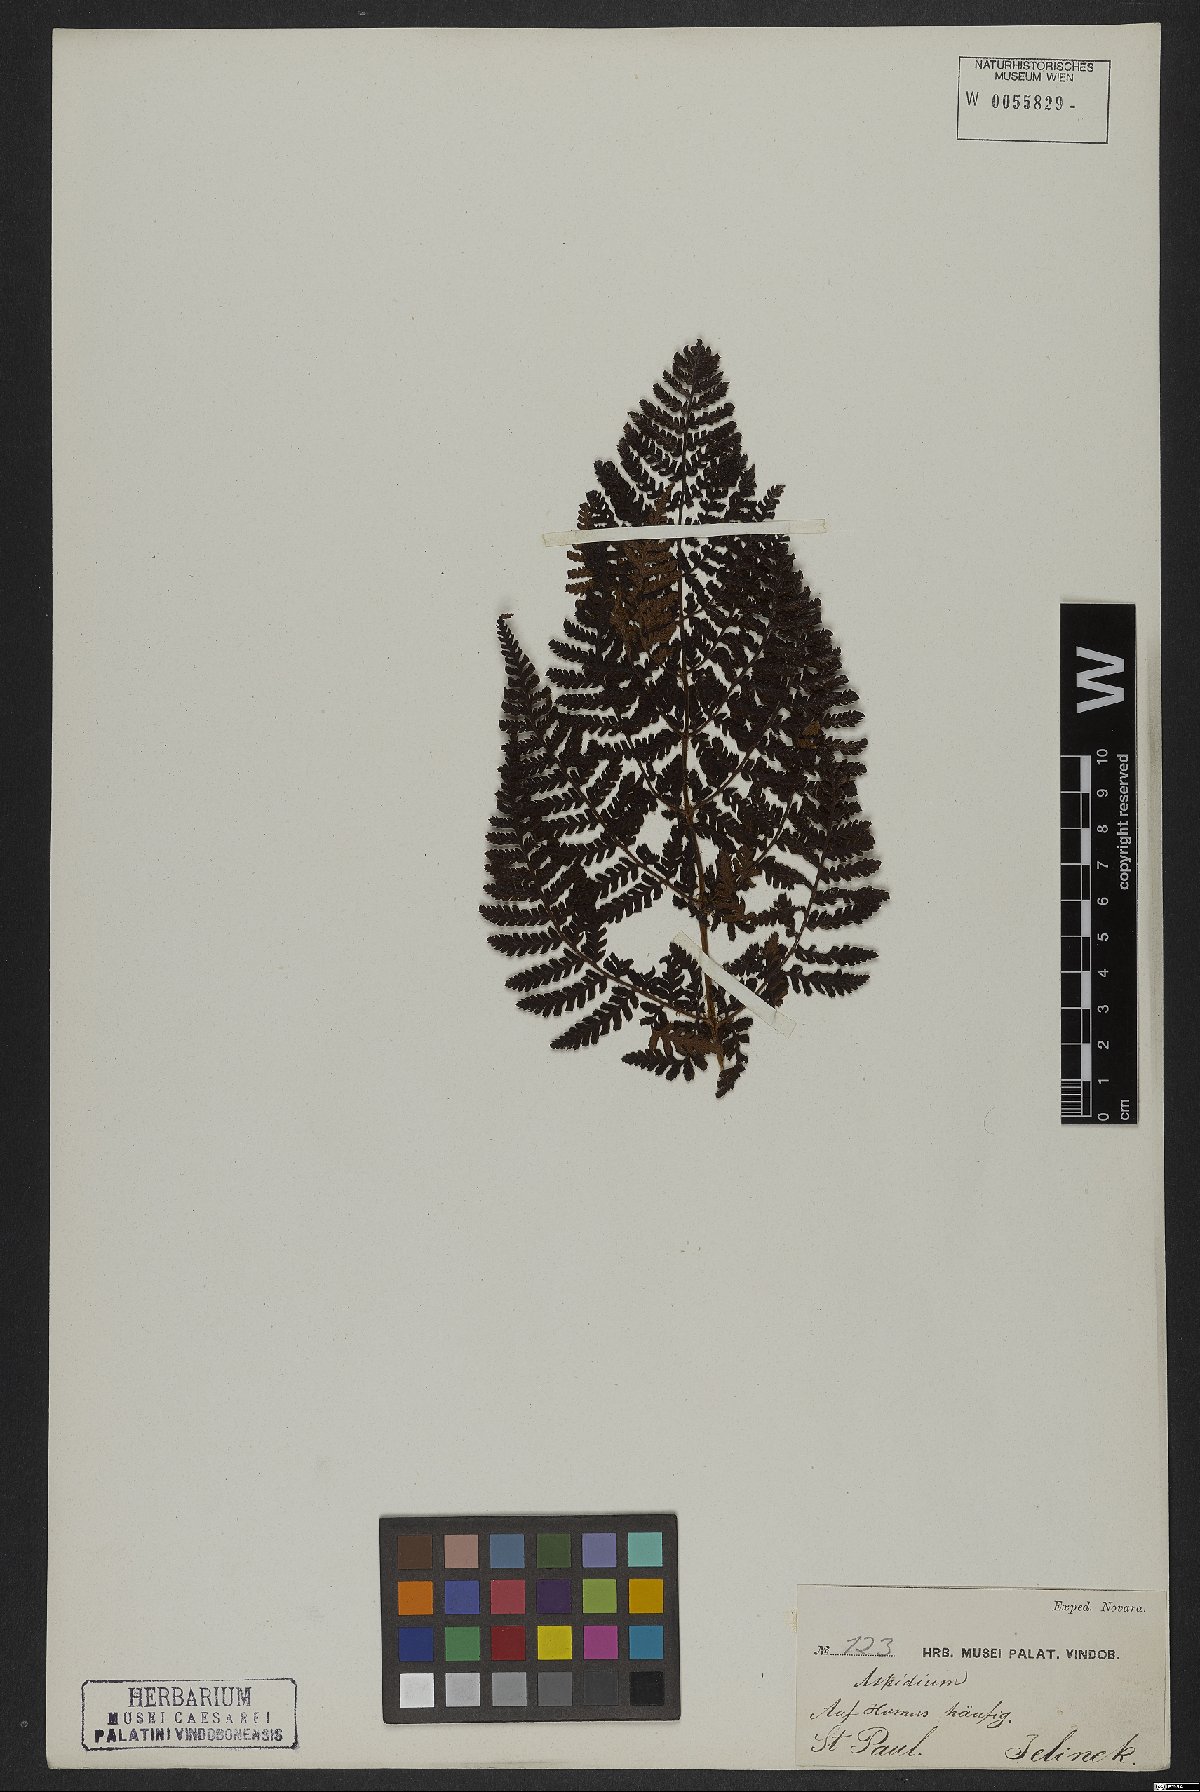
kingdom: Plantae
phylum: Tracheophyta
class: Polypodiopsida
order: Polypodiales
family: Dryopteridaceae
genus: Dryopteris
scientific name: Dryopteris
